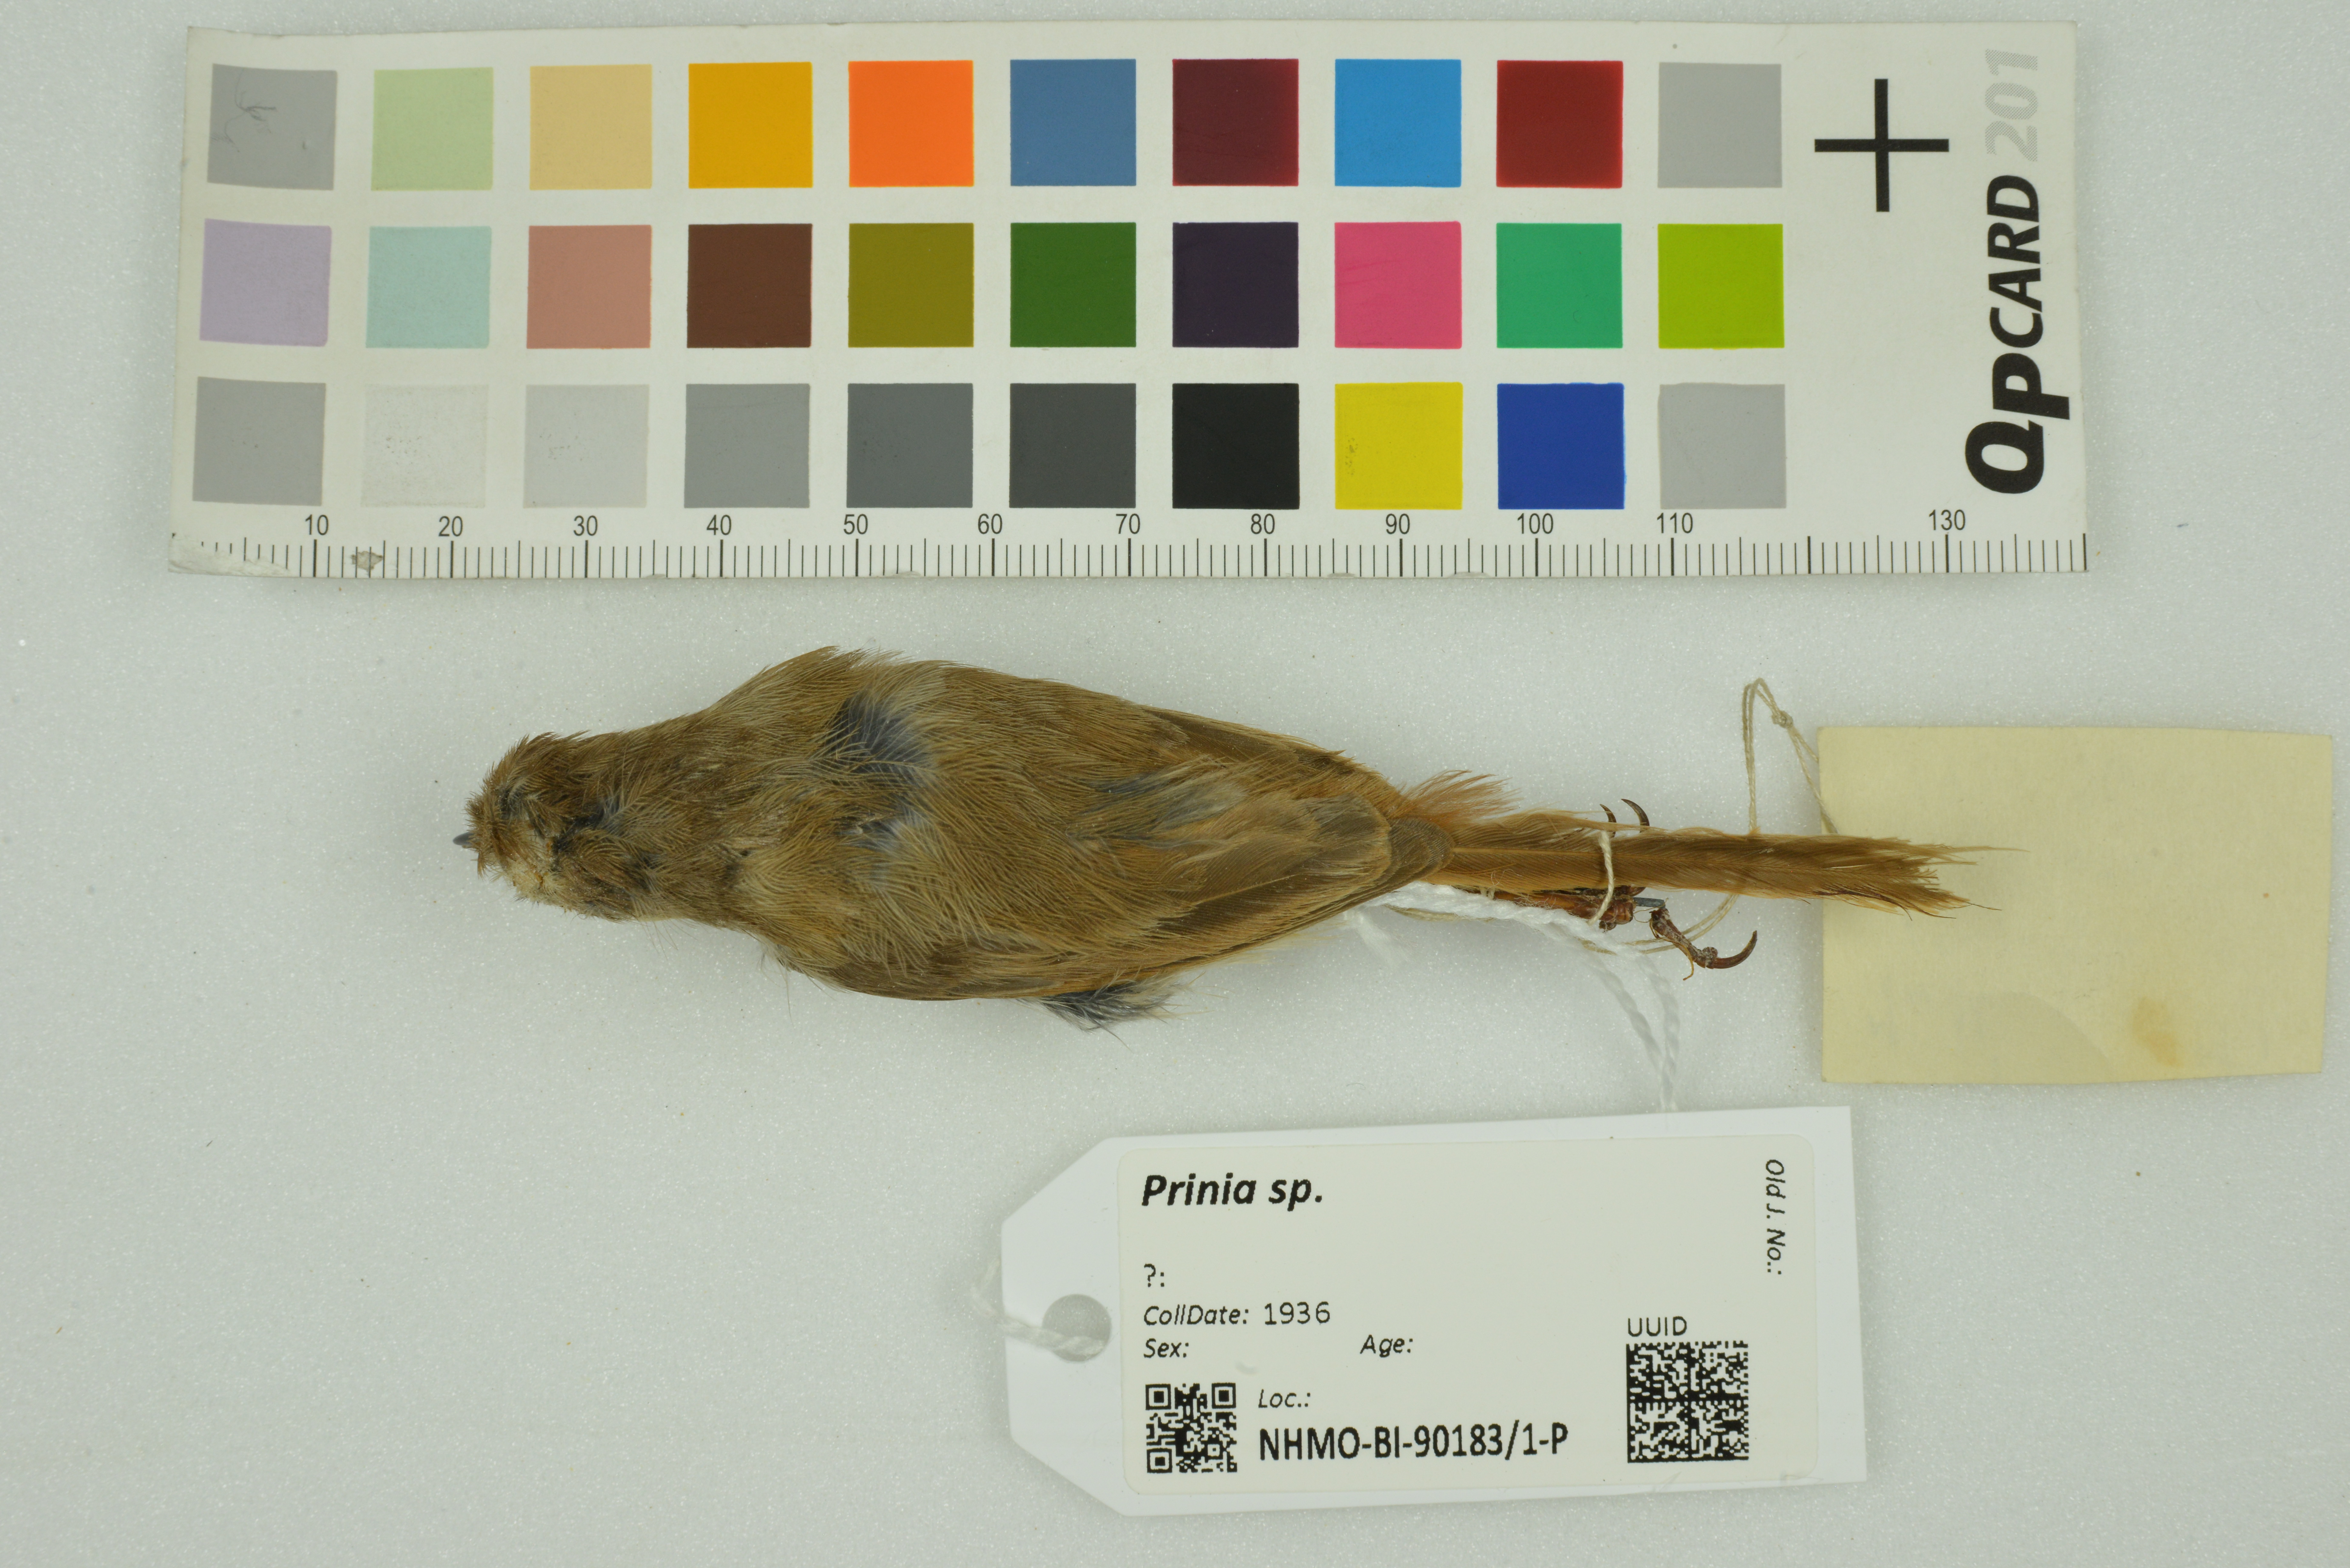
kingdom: Animalia
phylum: Chordata
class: Aves
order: Passeriformes
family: Cisticolidae
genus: Prinia
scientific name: Prinia
